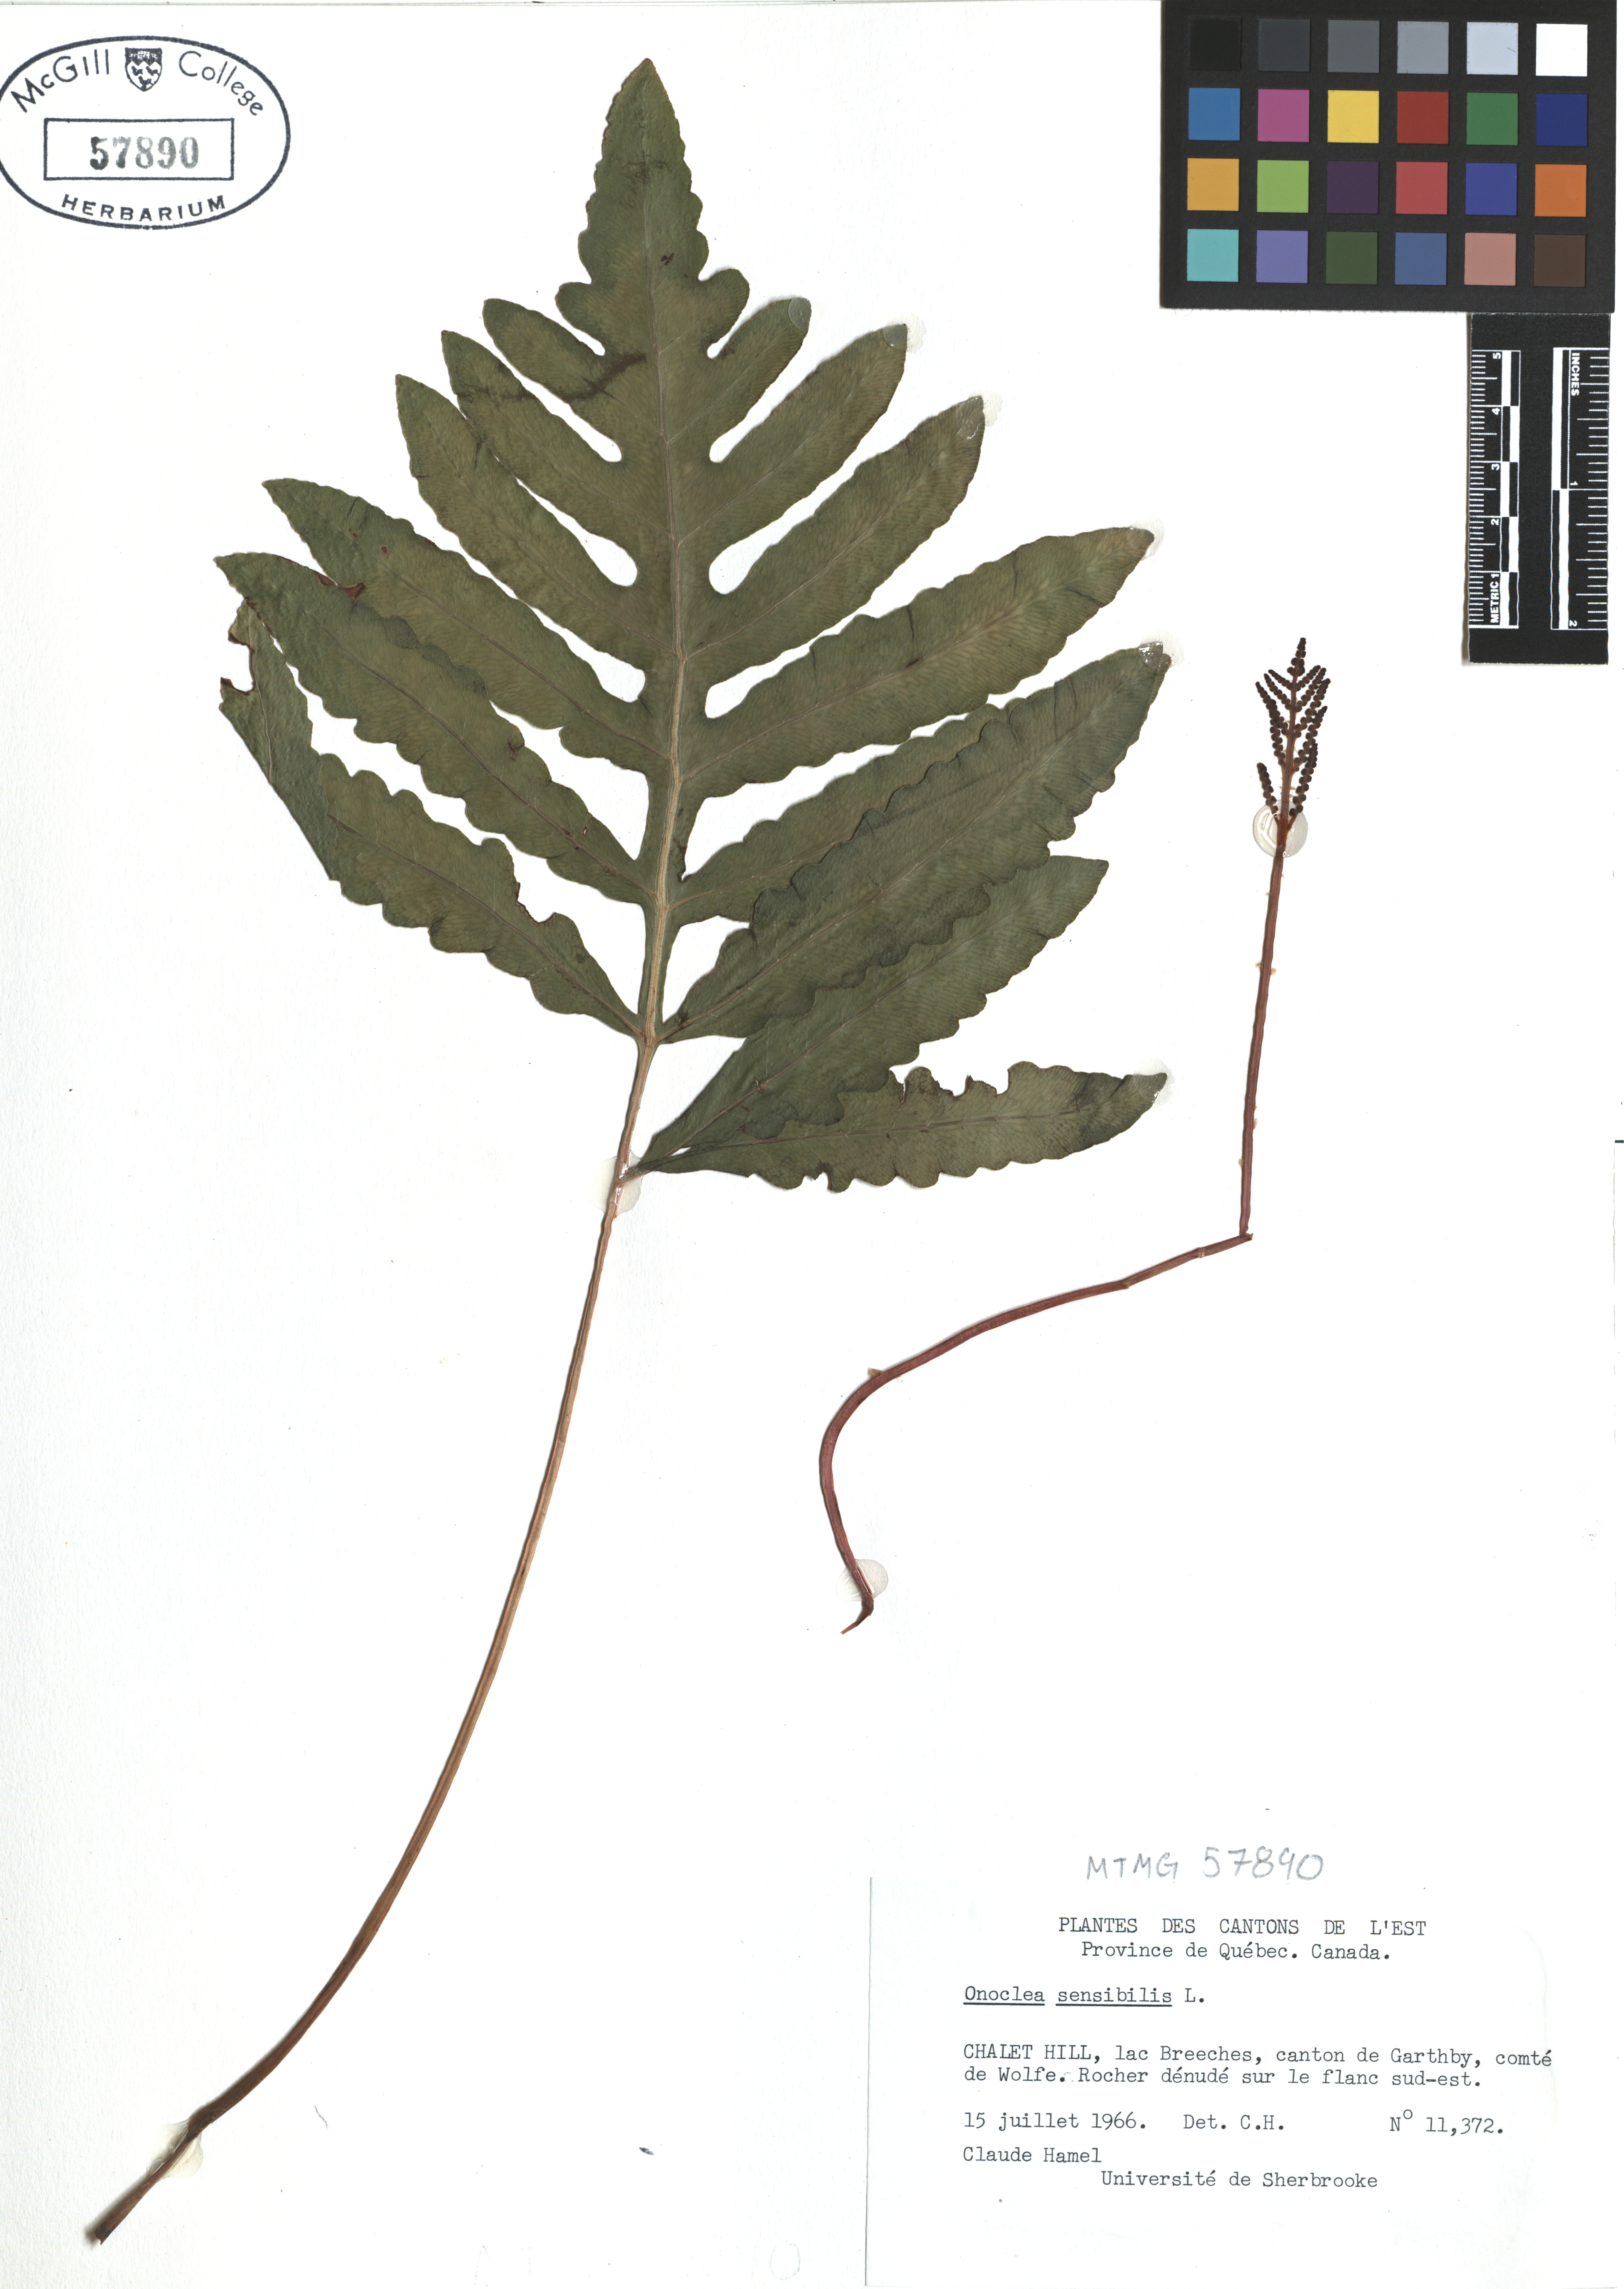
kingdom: Plantae
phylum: Tracheophyta
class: Polypodiopsida
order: Polypodiales
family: Onocleaceae
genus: Onoclea
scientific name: Onoclea sensibilis
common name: Sensitive fern
